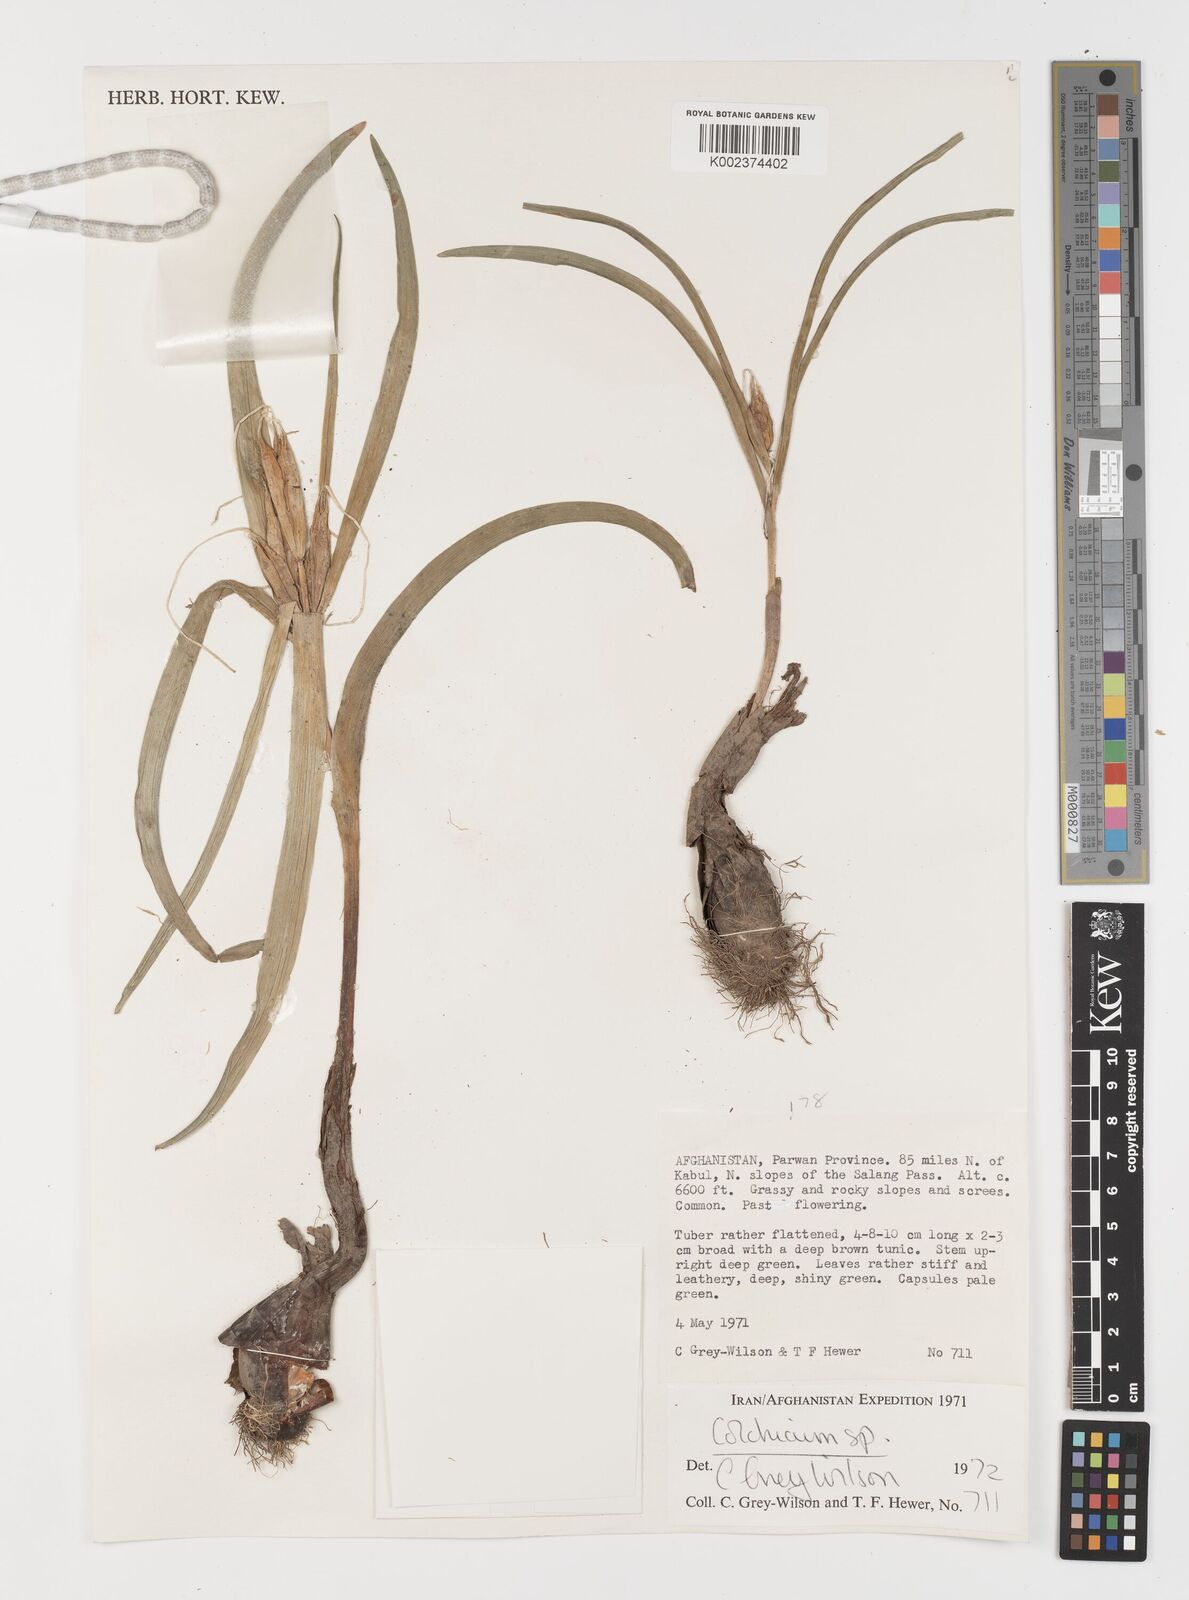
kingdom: Plantae
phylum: Tracheophyta
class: Liliopsida
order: Liliales
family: Colchicaceae
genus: Colchicum
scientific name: Colchicum
